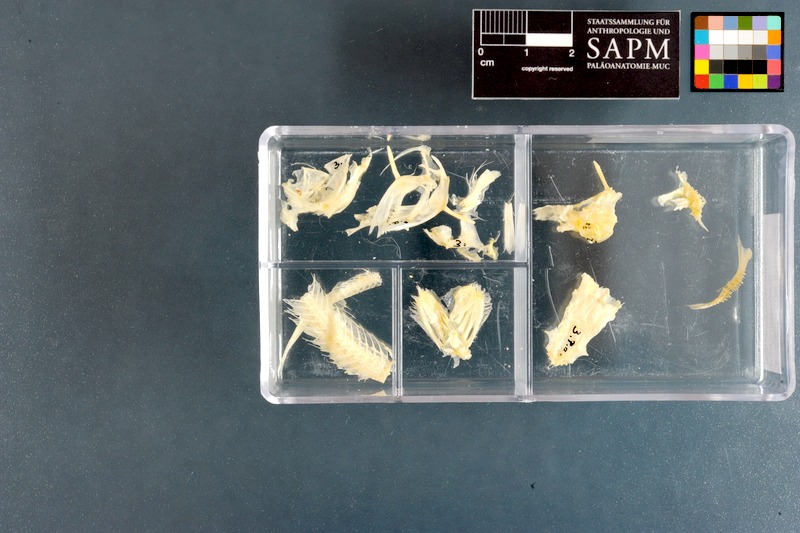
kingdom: Animalia
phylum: Chordata
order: Siluriformes
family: Plotosidae
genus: Plotosus
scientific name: Plotosus lineatus
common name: Striped eel catfish
